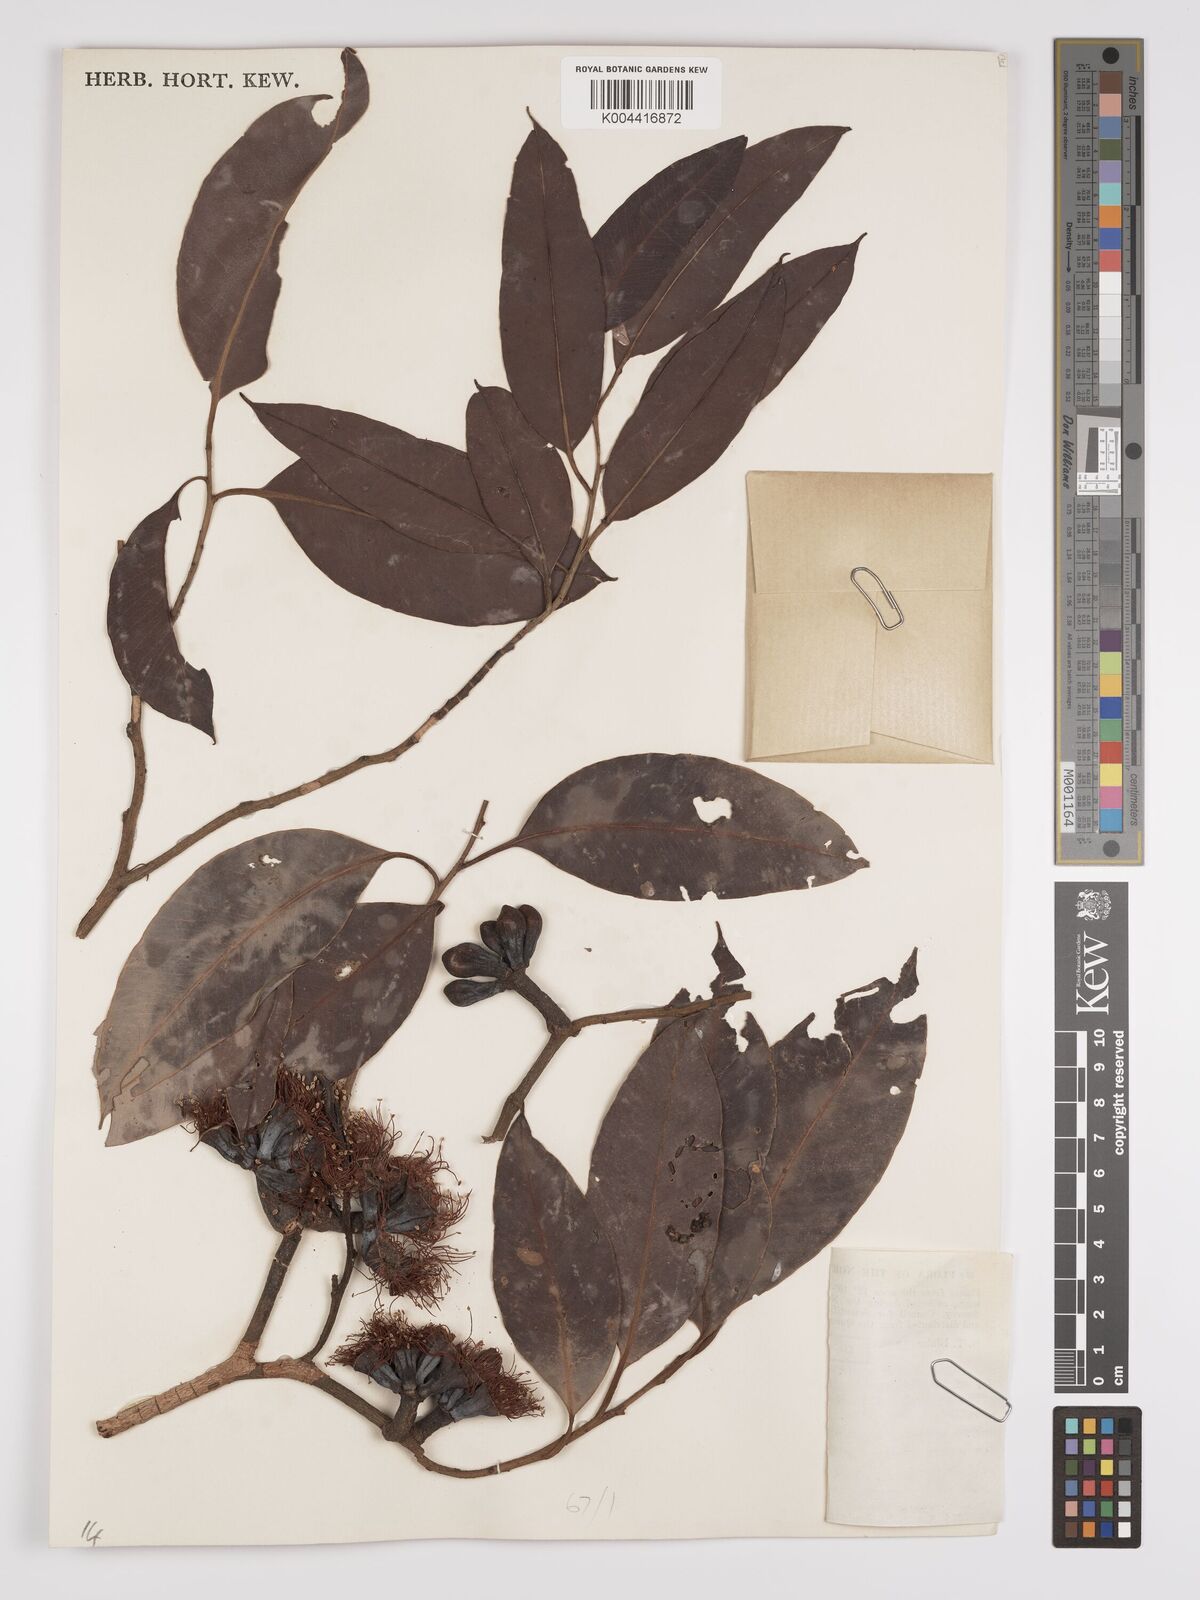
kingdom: Plantae
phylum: Tracheophyta
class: Magnoliopsida
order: Myrtales
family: Myrtaceae
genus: Eucalyptus
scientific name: Eucalyptus miniata
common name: Darwin-woollybutt
